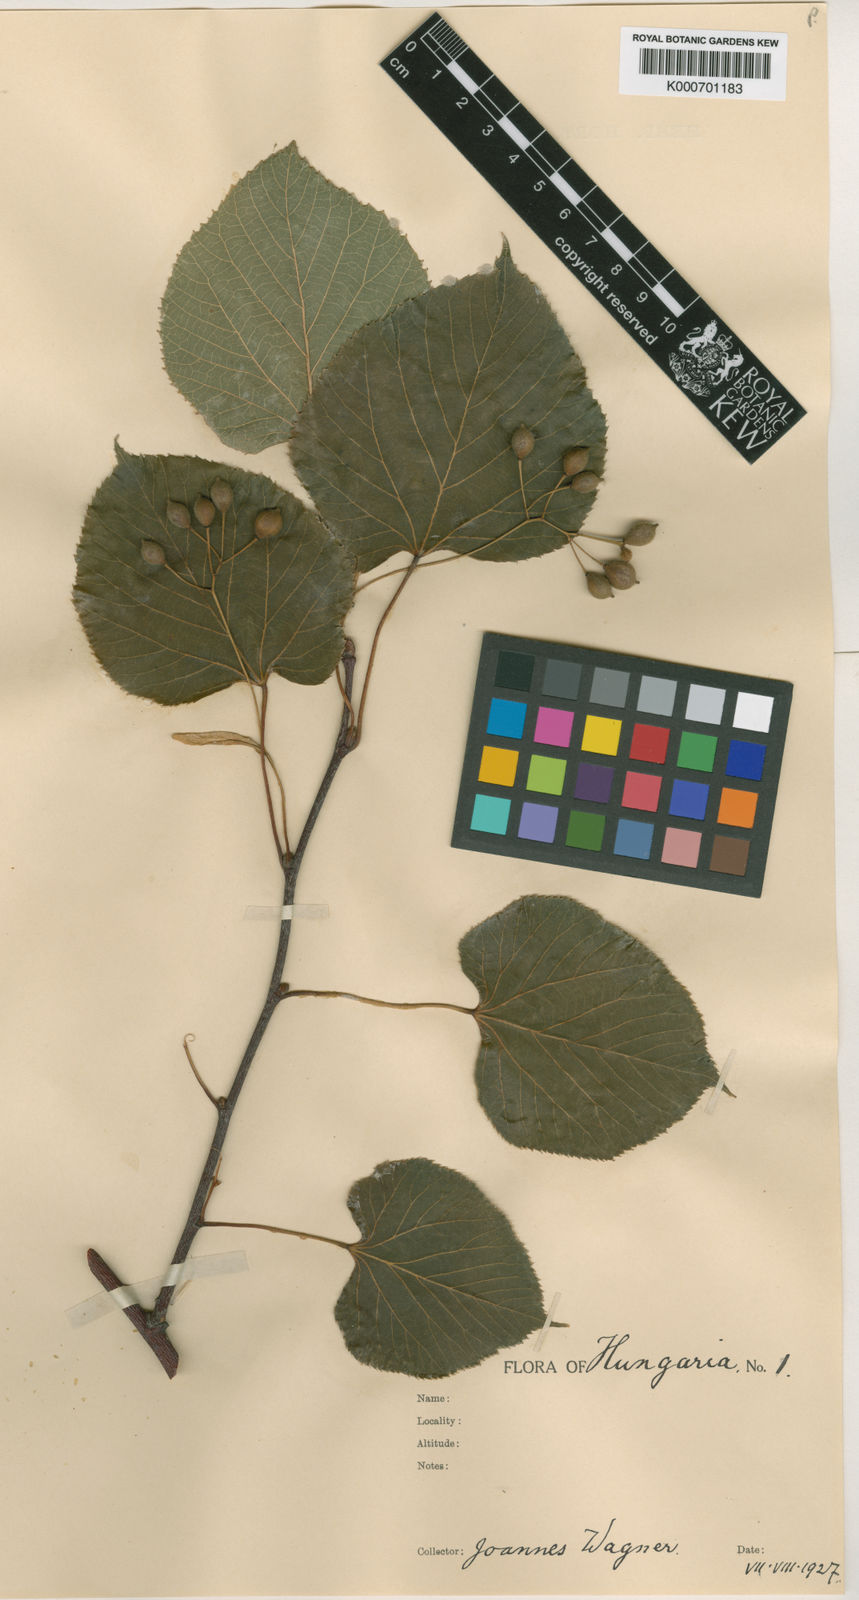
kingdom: Plantae
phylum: Tracheophyta
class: Magnoliopsida
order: Malvales
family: Malvaceae
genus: Tilia
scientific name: Tilia platyphyllos
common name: Large-leaved lime
